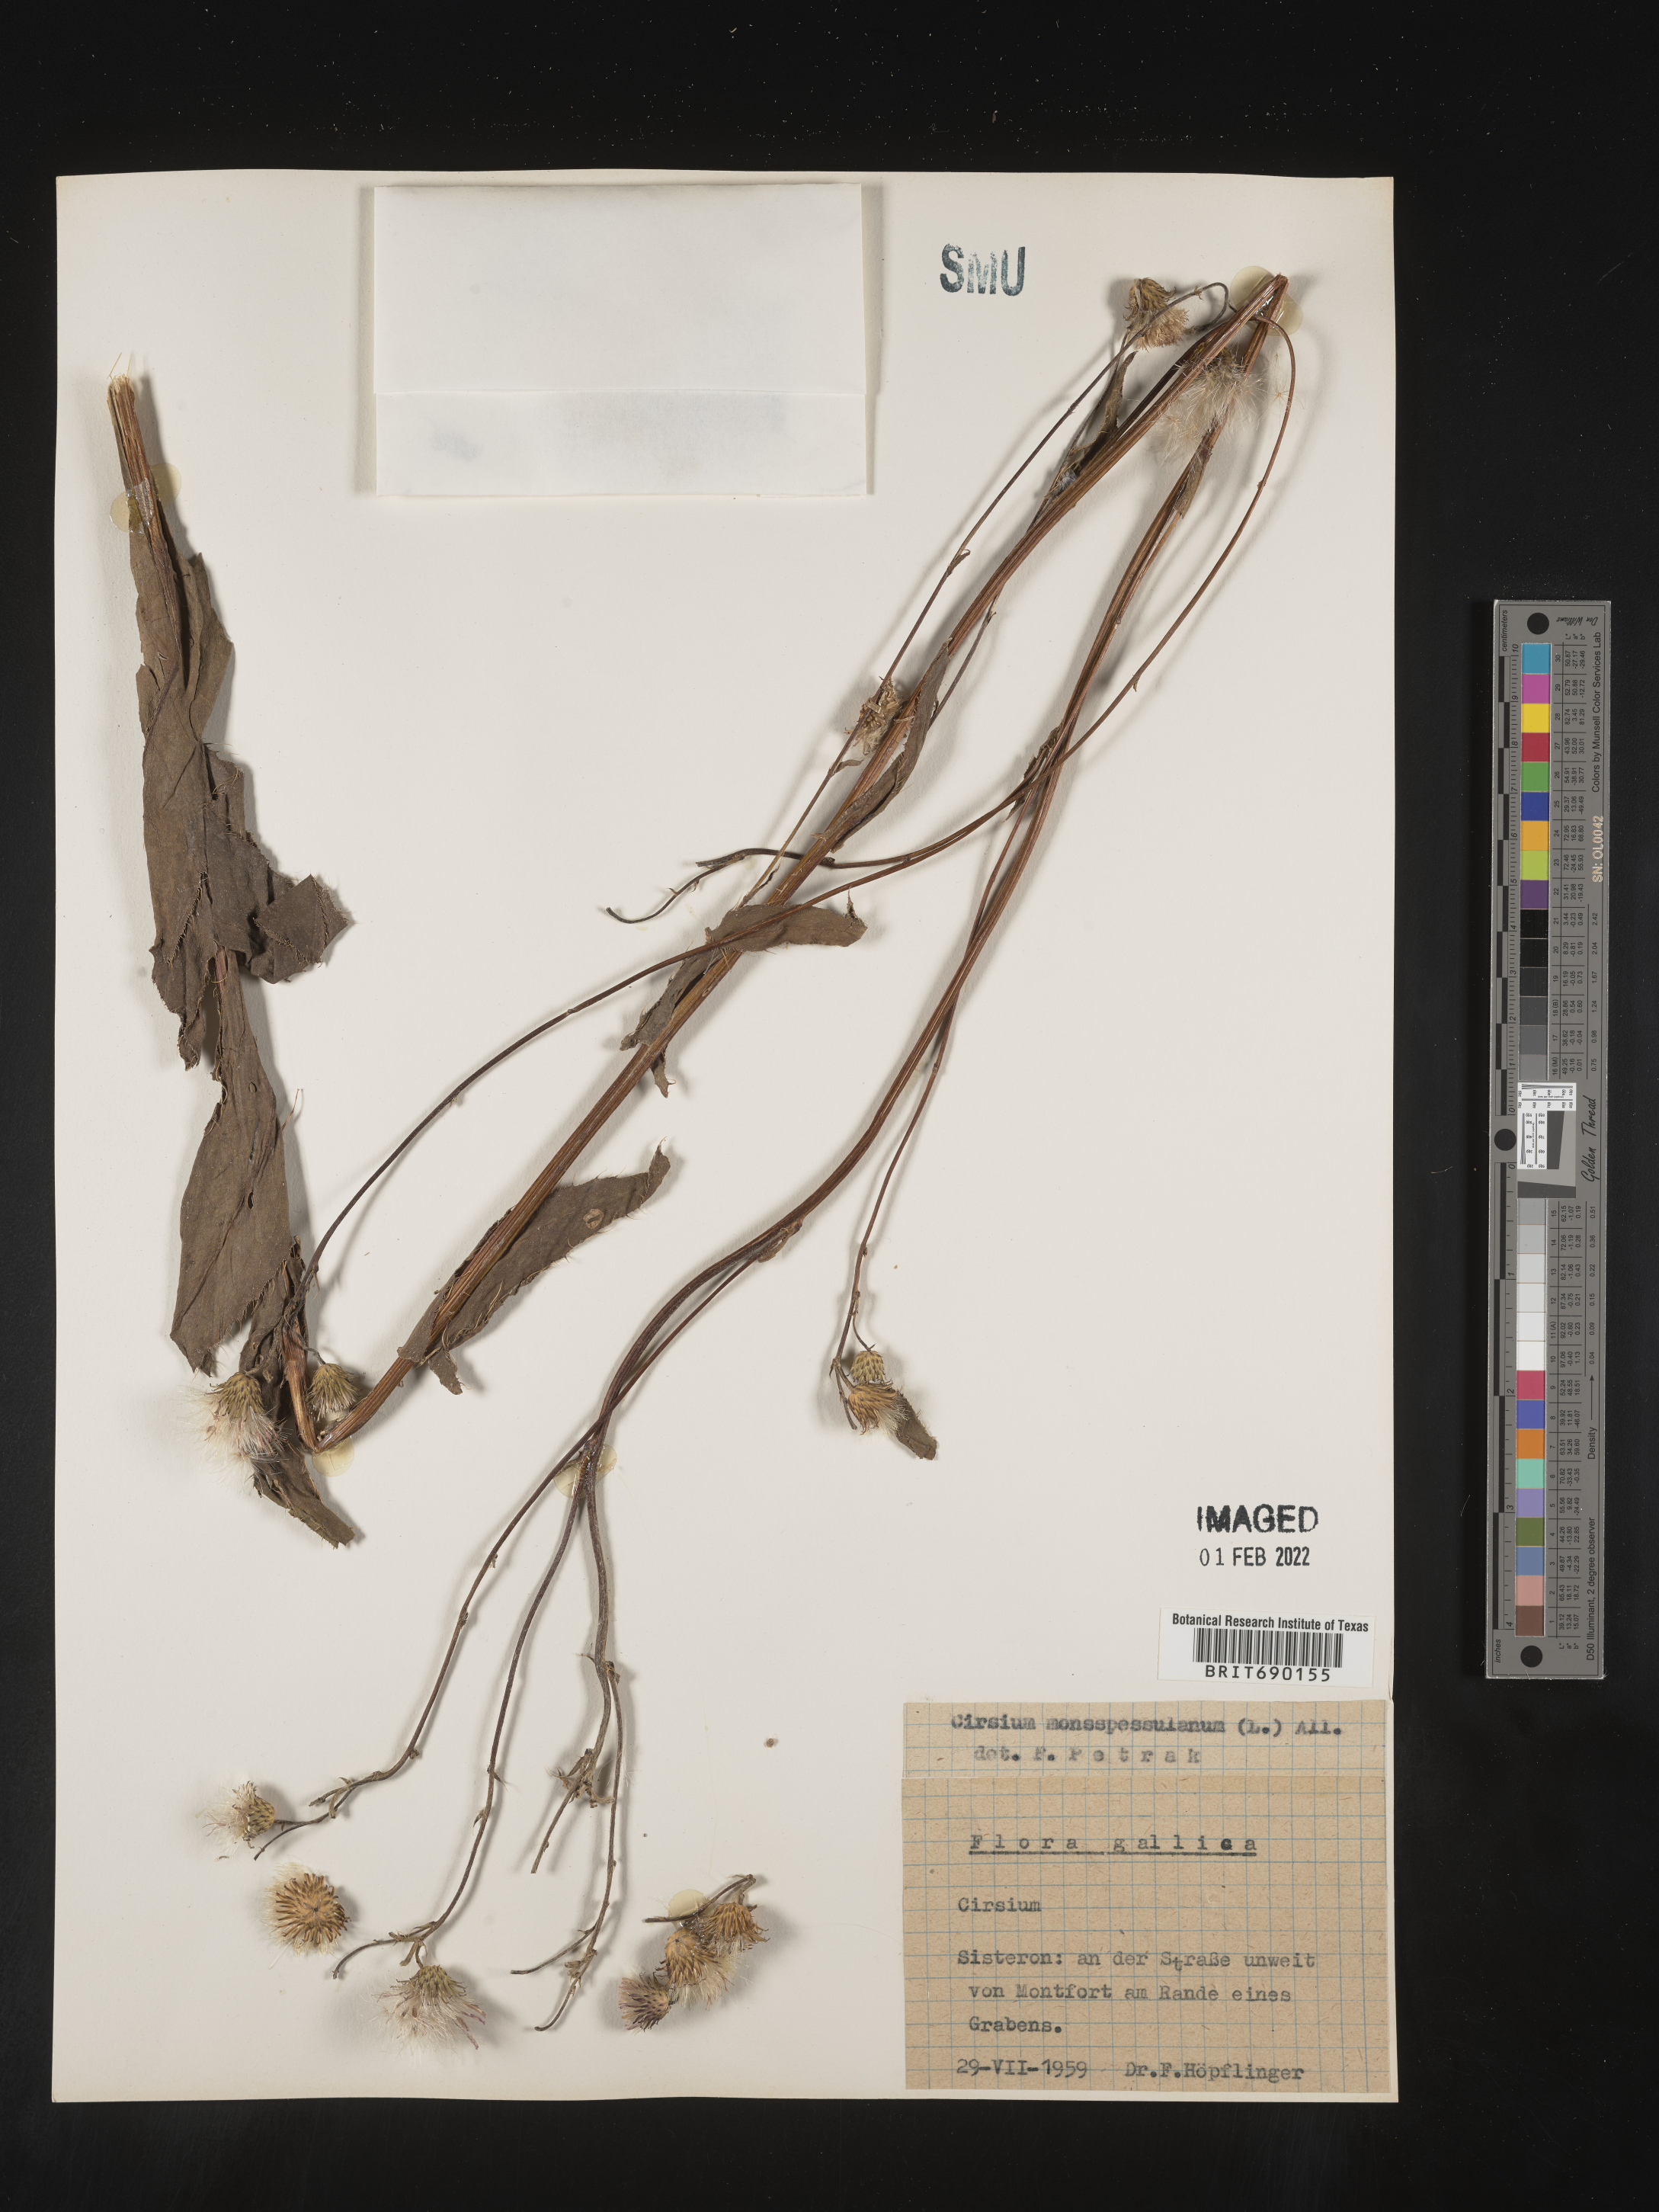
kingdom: Plantae
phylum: Tracheophyta
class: Magnoliopsida
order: Asterales
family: Asteraceae
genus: Cirsium
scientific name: Cirsium
